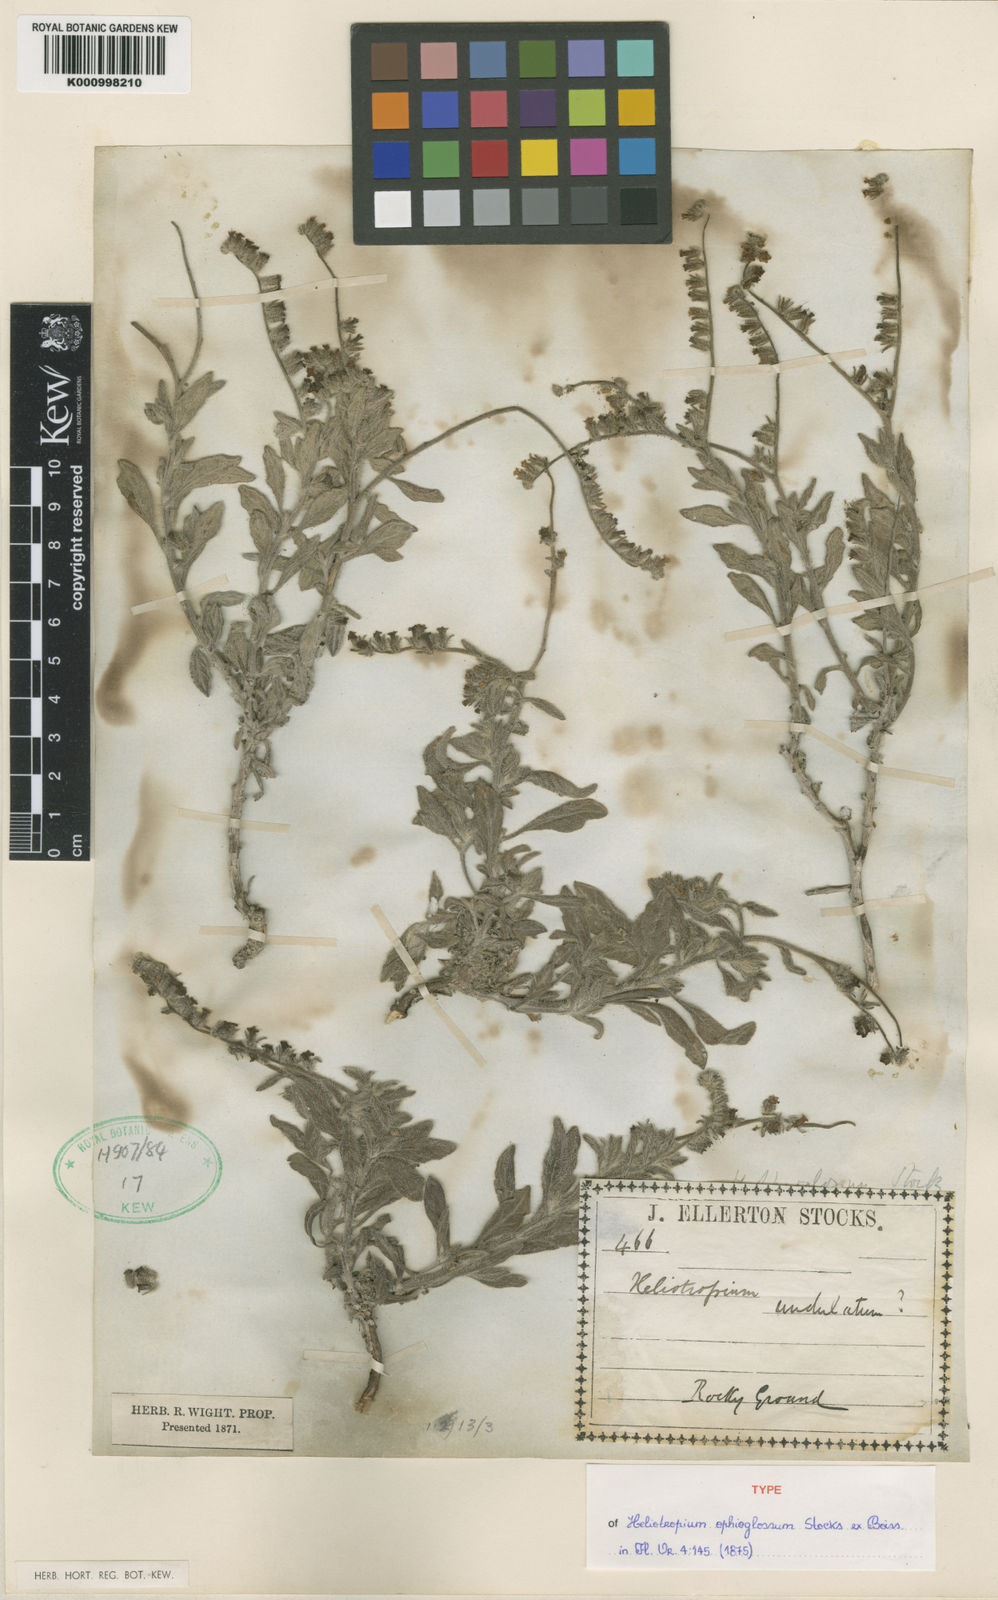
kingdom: Plantae
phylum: Tracheophyta
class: Magnoliopsida
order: Boraginales
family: Heliotropiaceae
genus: Heliotropium
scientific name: Heliotropium ophioglossum
